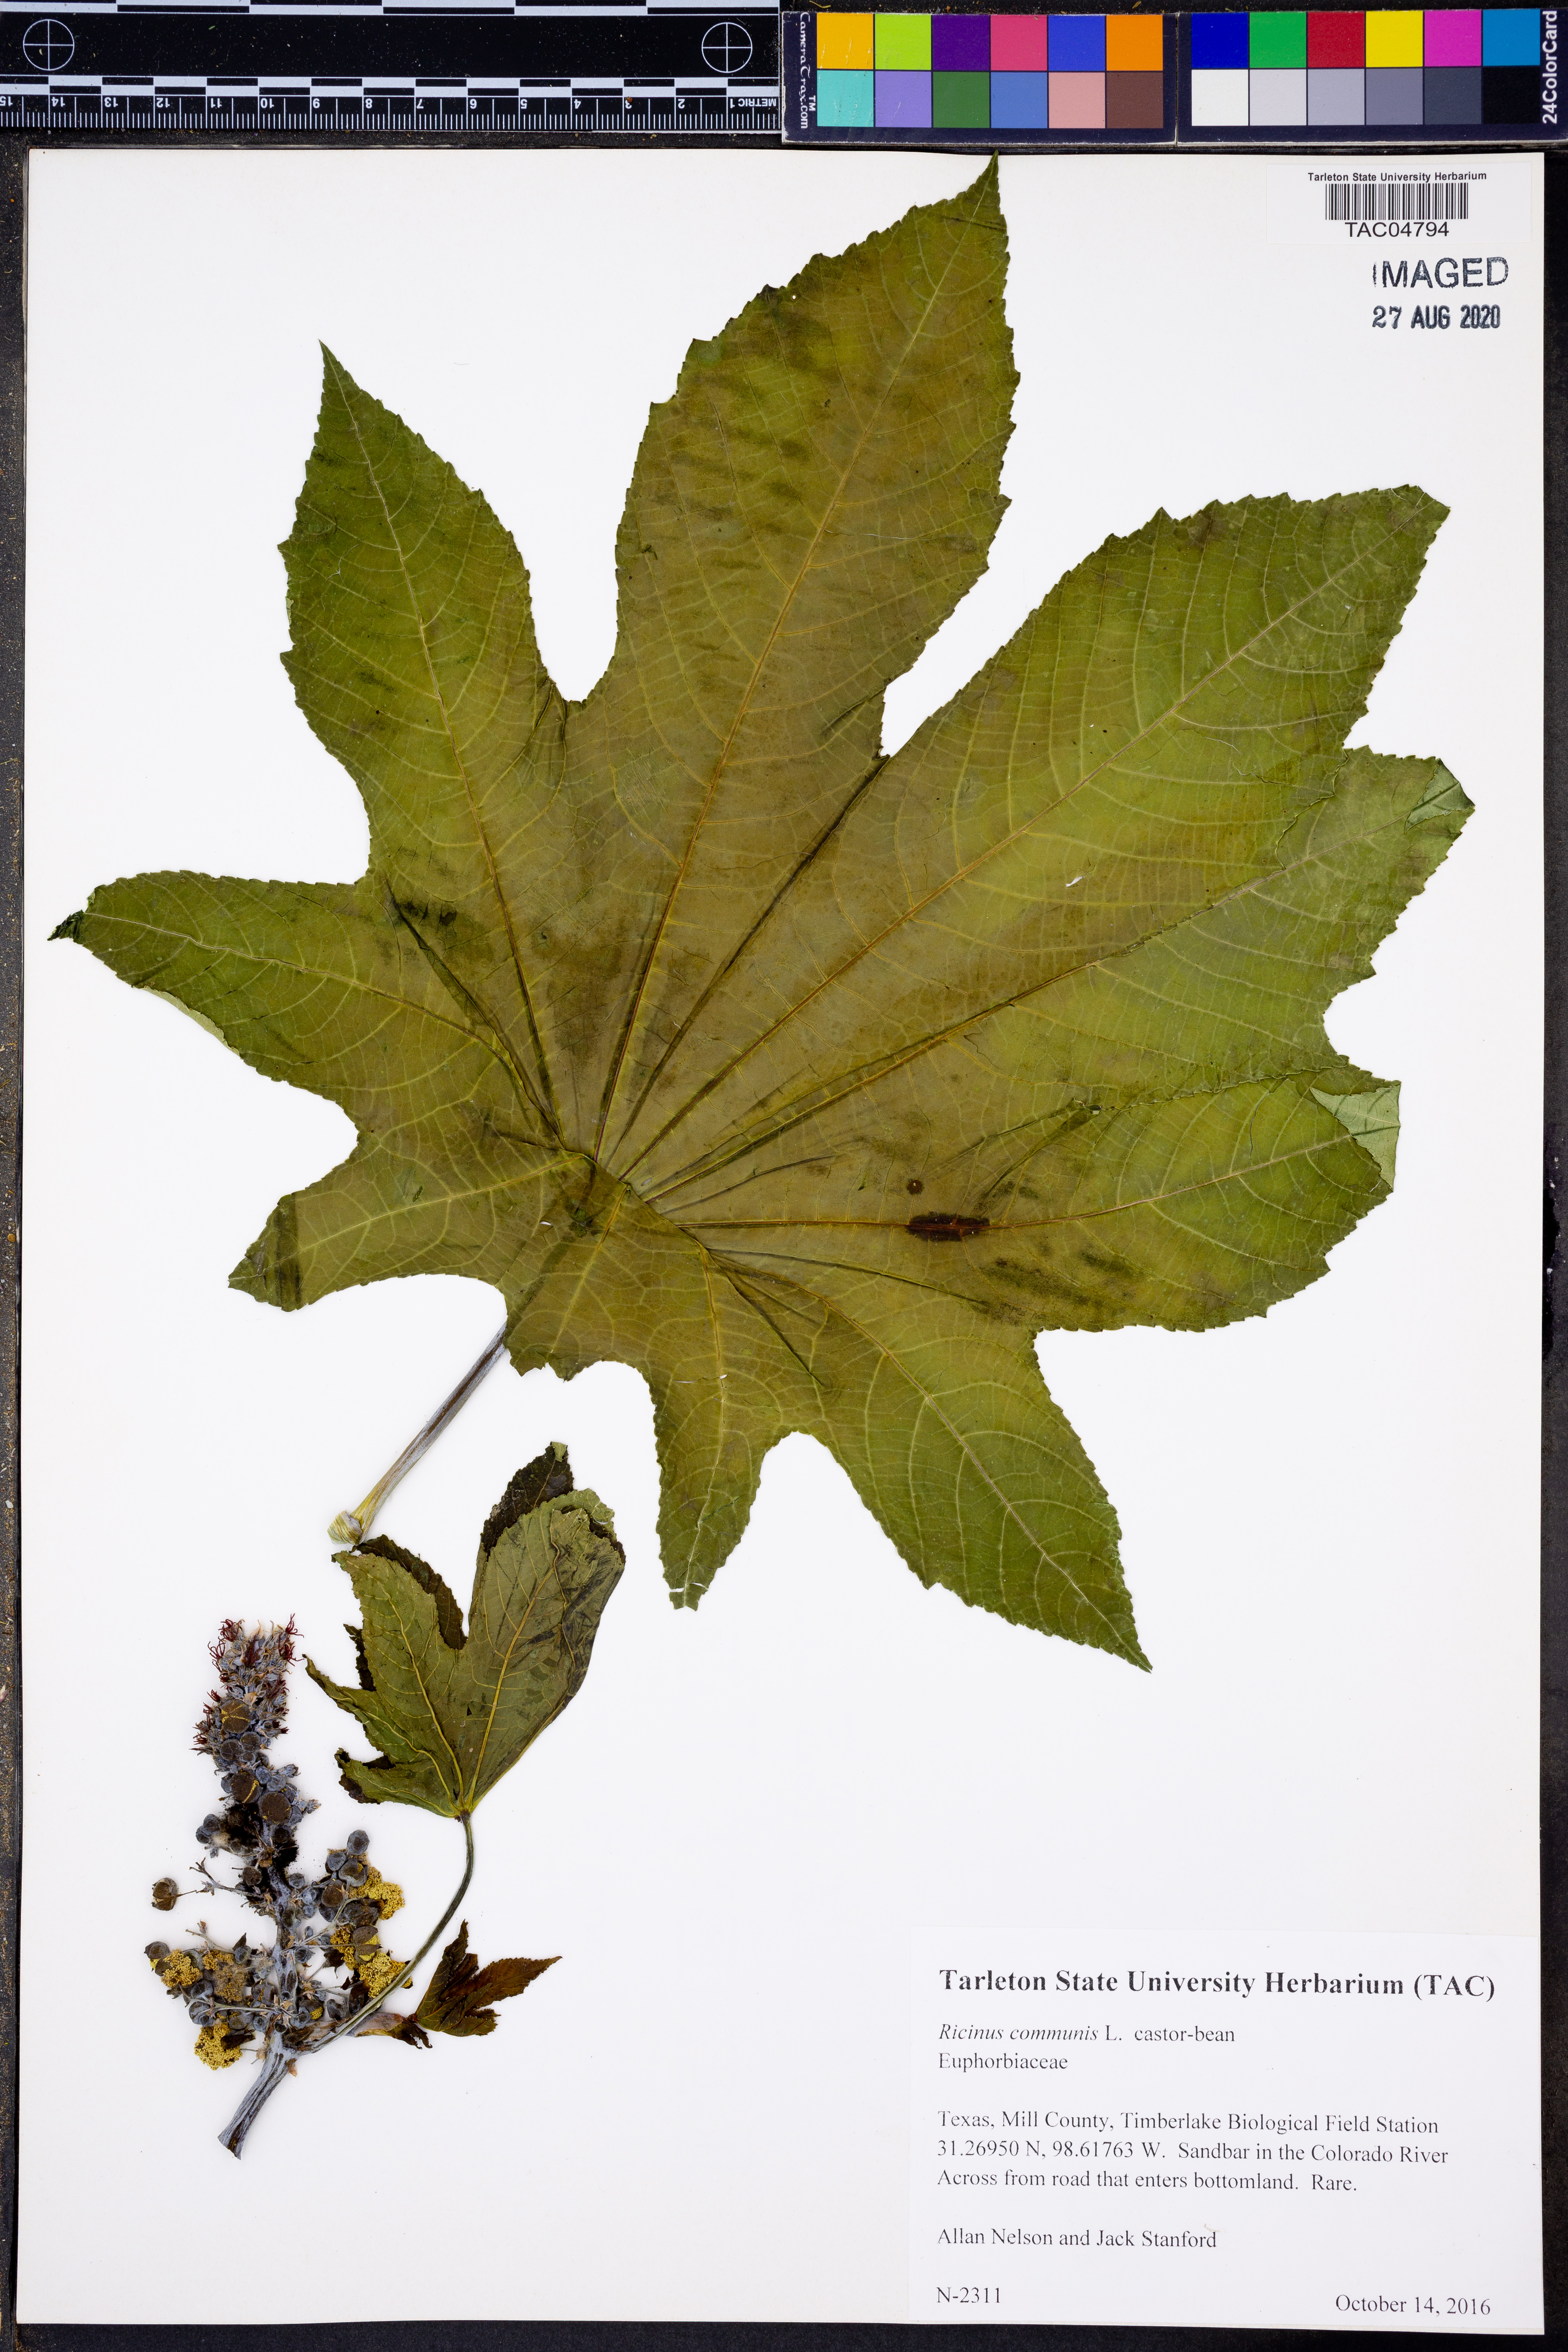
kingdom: Plantae
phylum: Tracheophyta
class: Magnoliopsida
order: Malpighiales
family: Euphorbiaceae
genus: Ricinus
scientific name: Ricinus communis
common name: Castor-oil-plant
